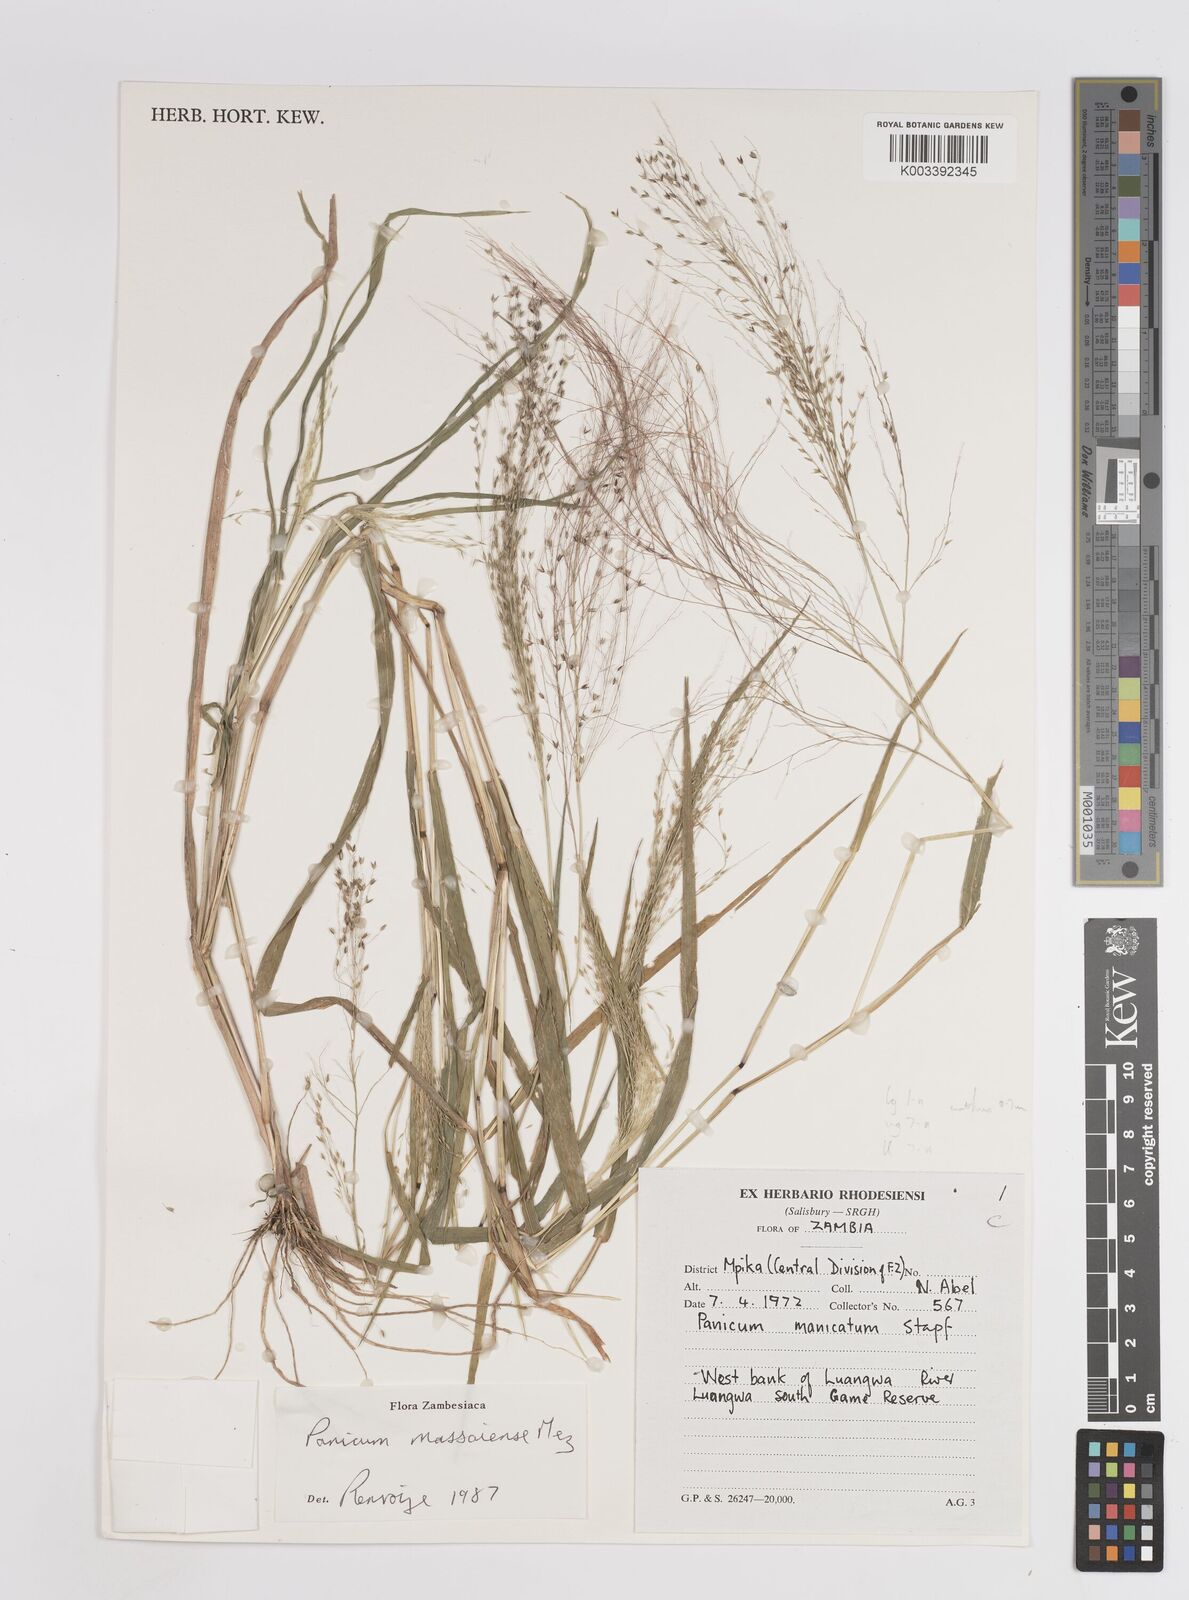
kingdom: Plantae
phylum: Tracheophyta
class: Liliopsida
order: Poales
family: Poaceae
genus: Panicum
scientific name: Panicum massaiense
